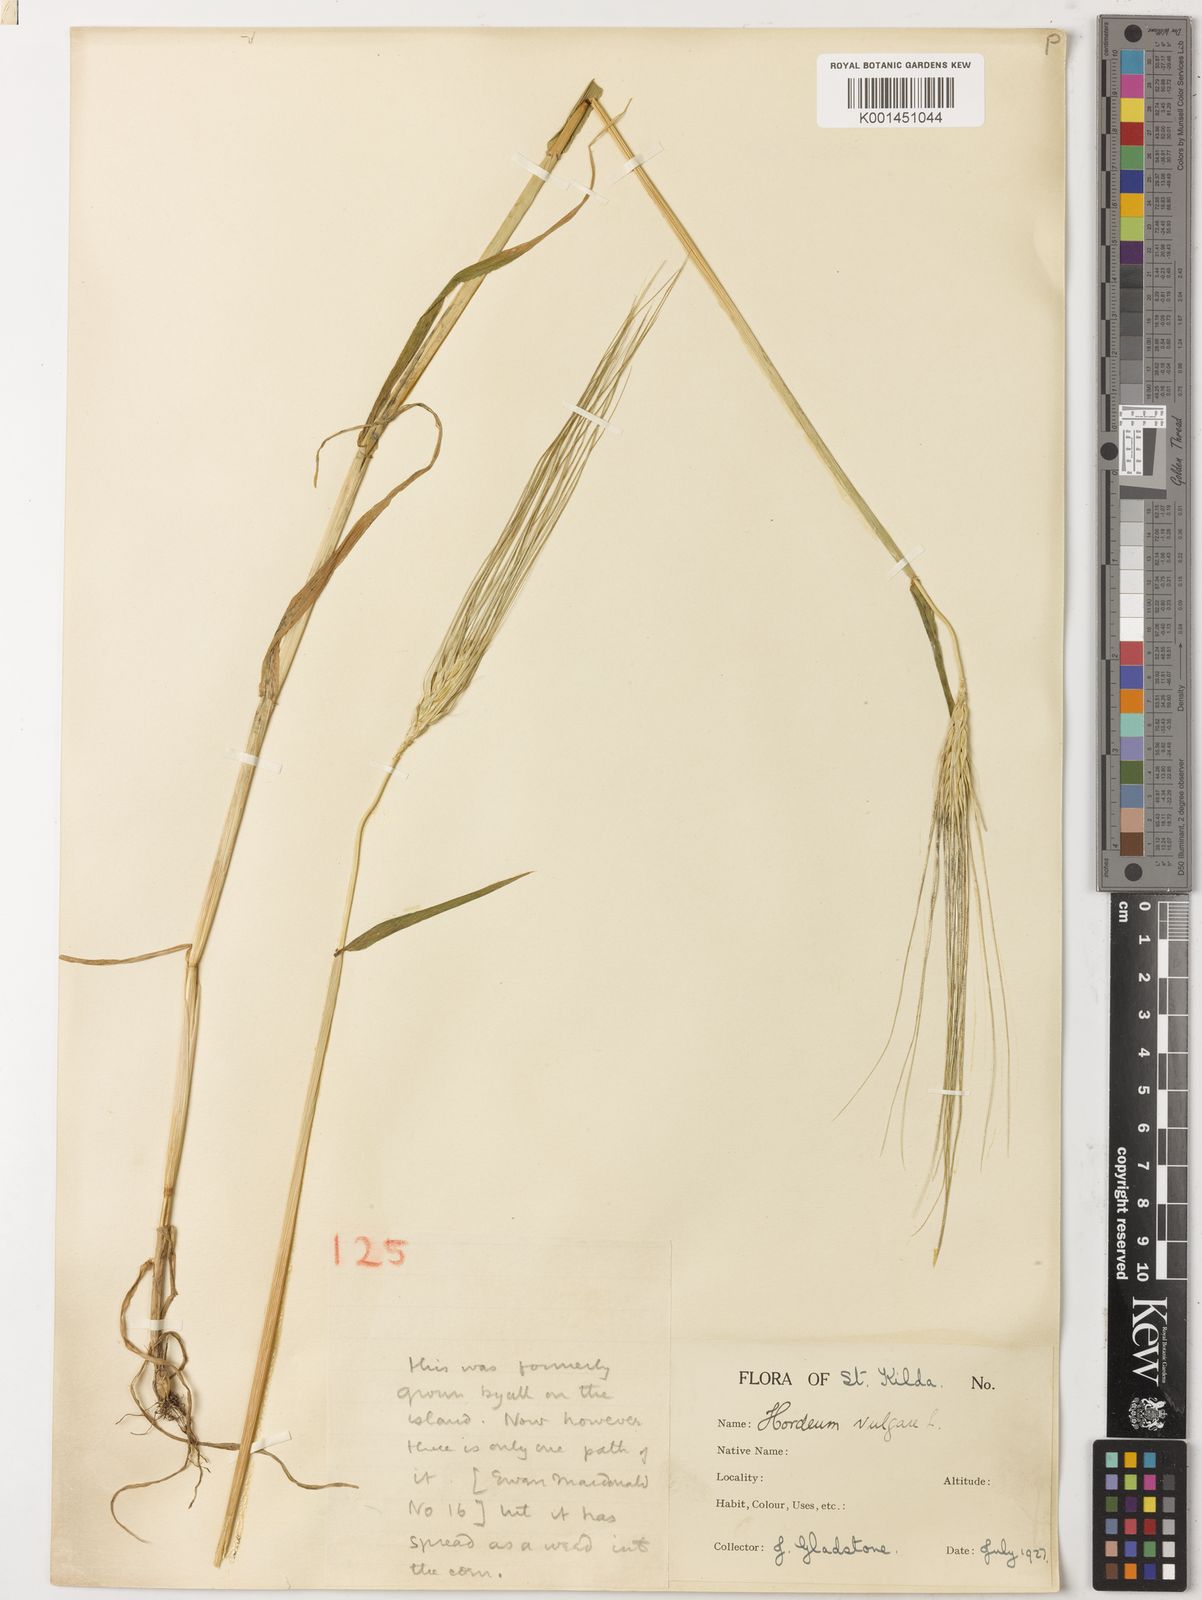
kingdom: Plantae
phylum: Tracheophyta
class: Liliopsida
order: Poales
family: Poaceae
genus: Hordeum
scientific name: Hordeum vulgare
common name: Common barley
